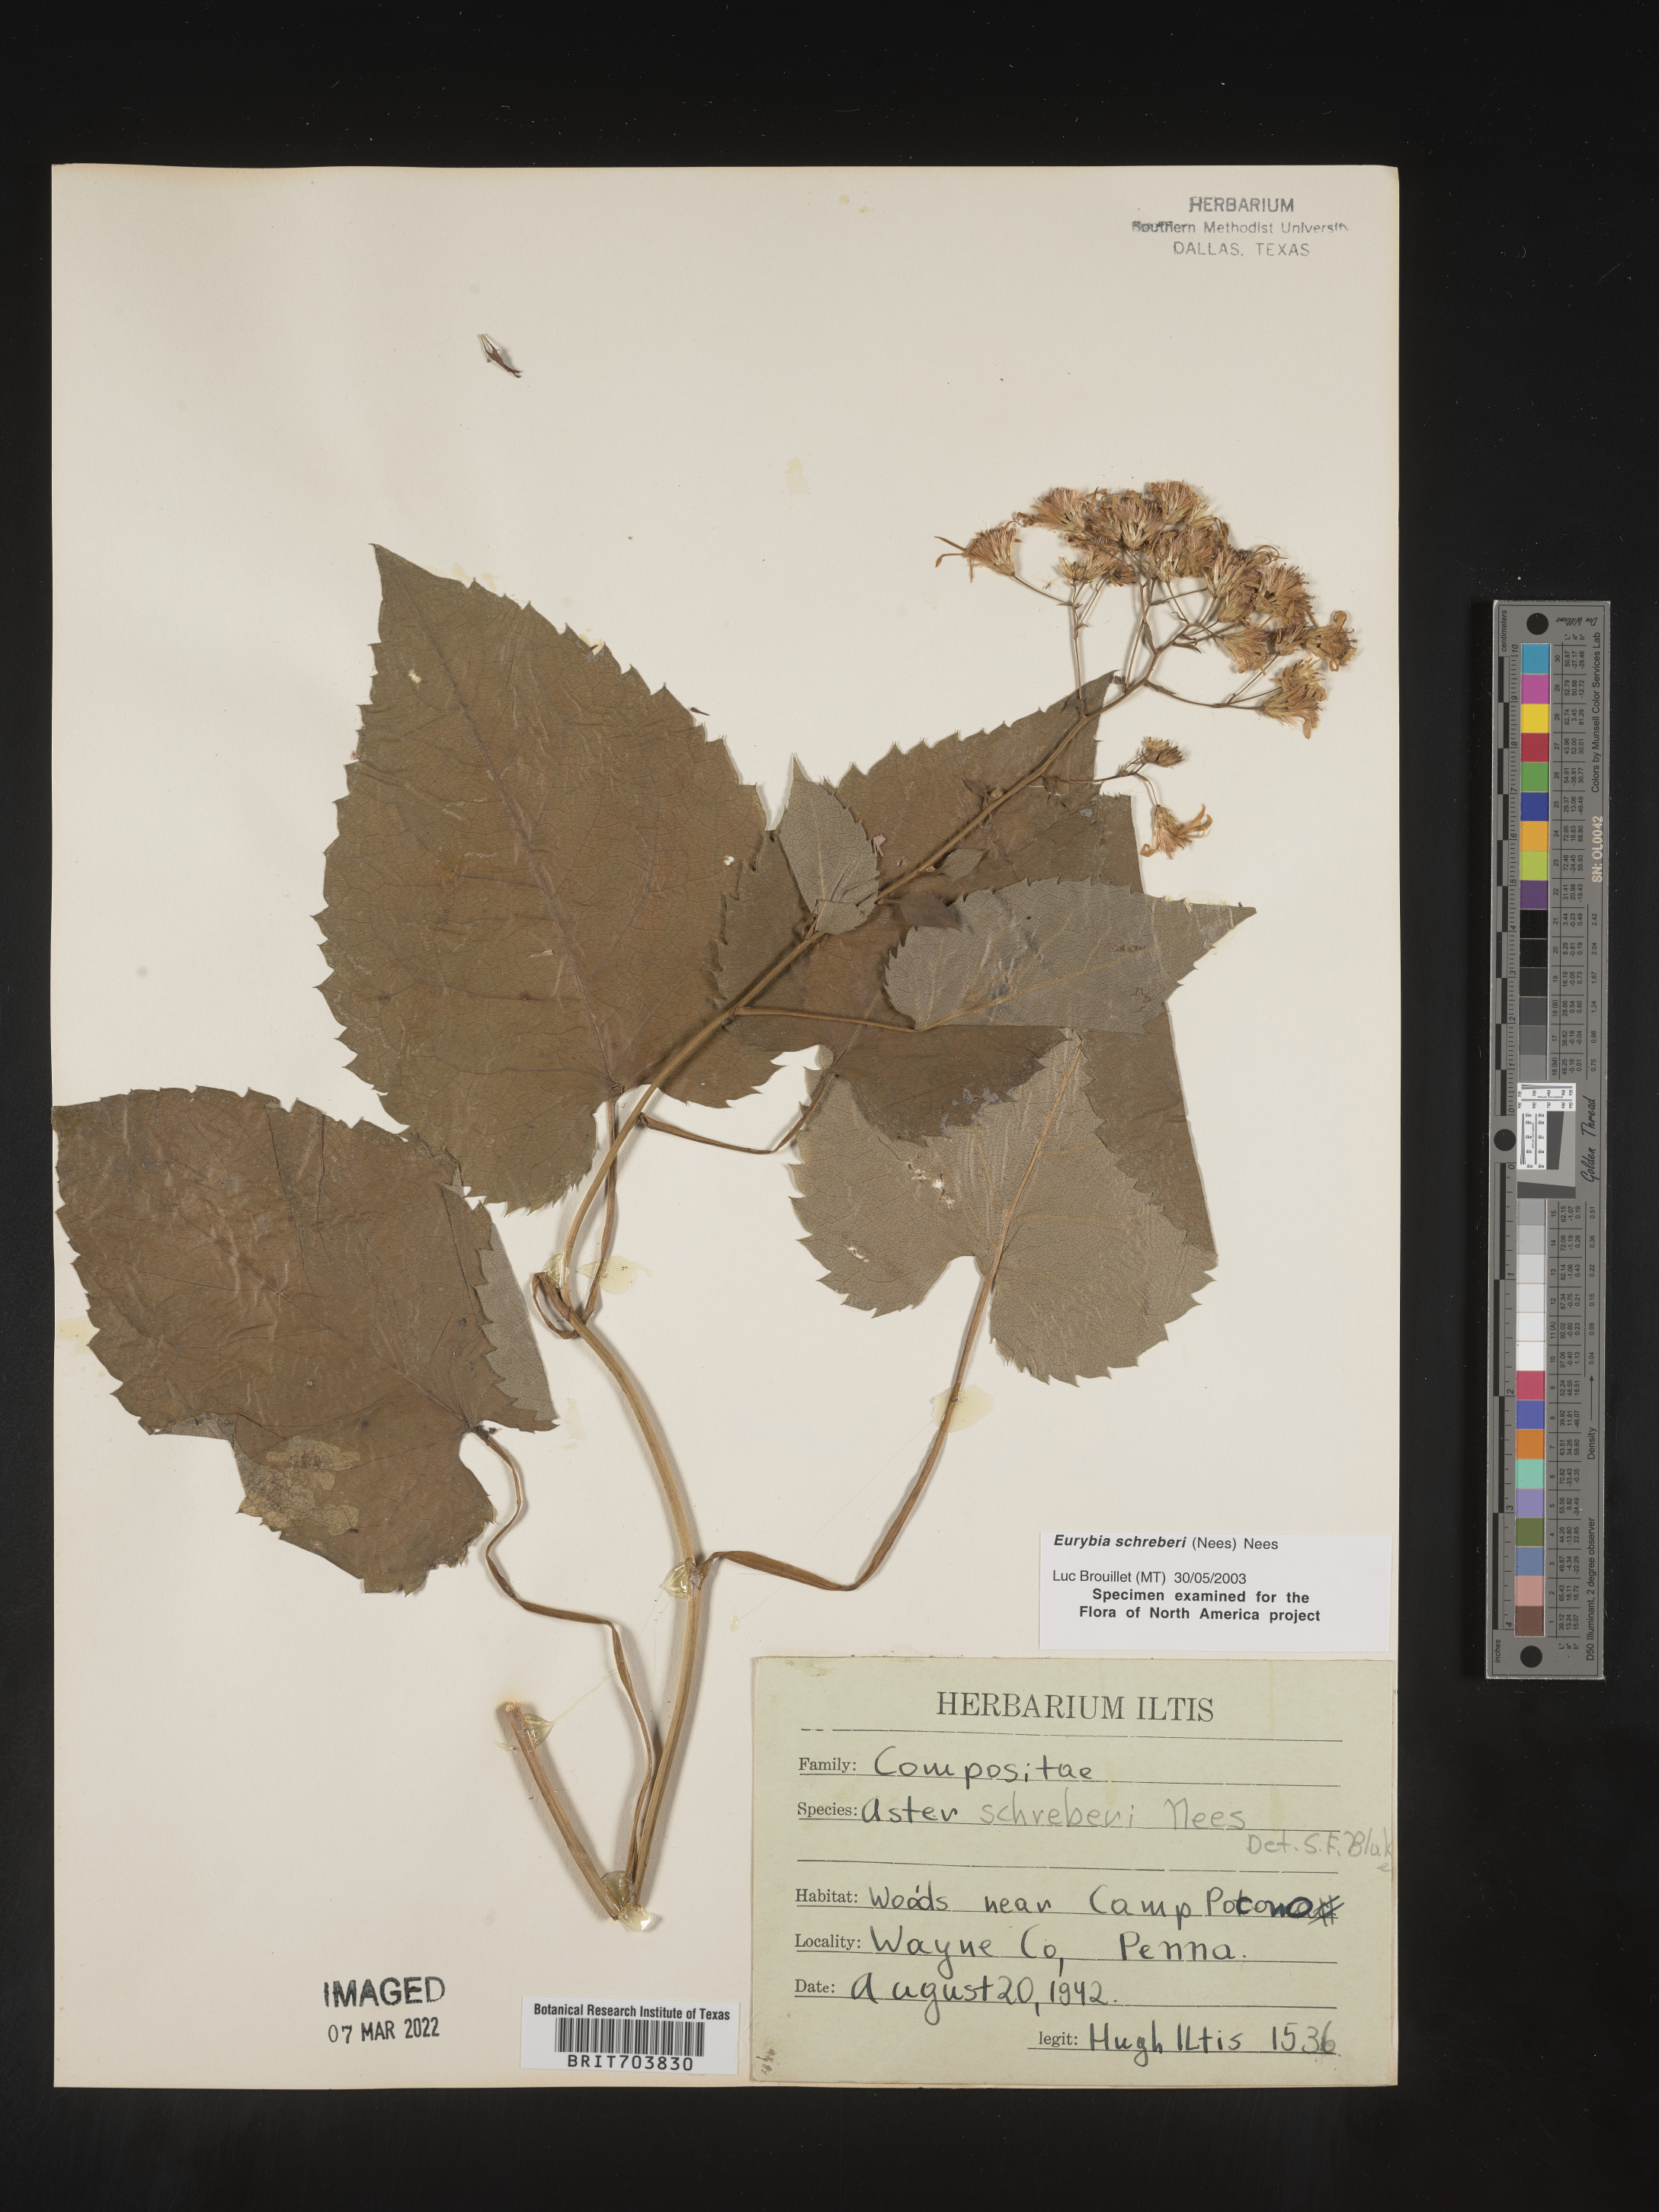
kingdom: Plantae
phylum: Tracheophyta
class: Magnoliopsida
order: Asterales
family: Asteraceae
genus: Eurybia
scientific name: Eurybia schreberi
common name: Schreber's aster
